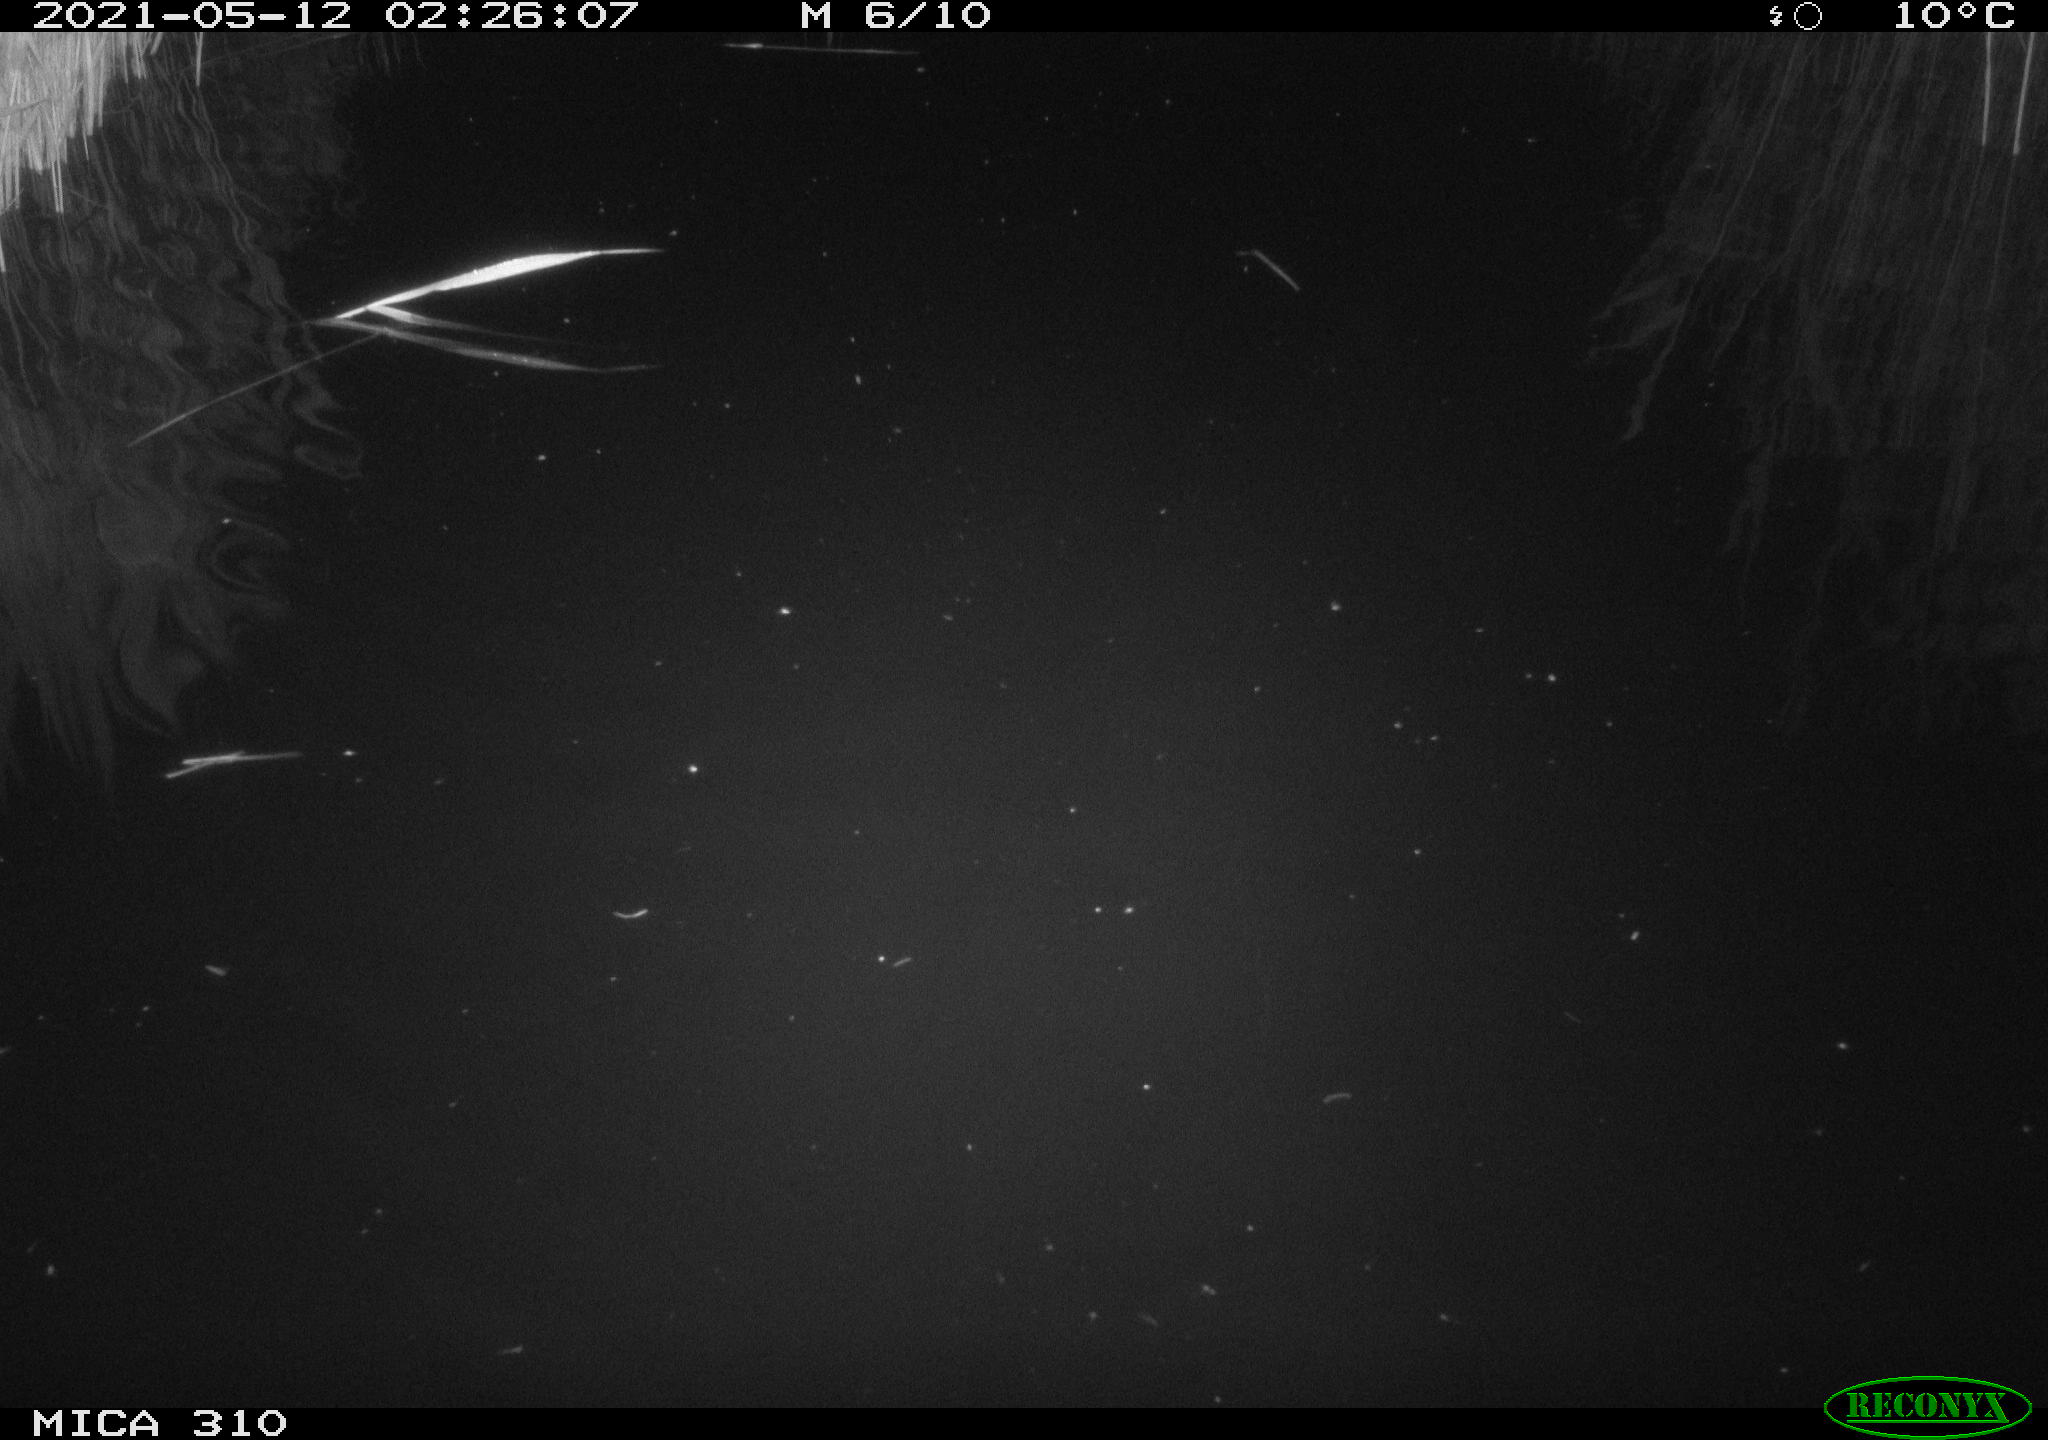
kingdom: Animalia
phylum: Chordata
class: Aves
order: Anseriformes
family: Anatidae
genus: Anas
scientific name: Anas platyrhynchos
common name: Mallard
